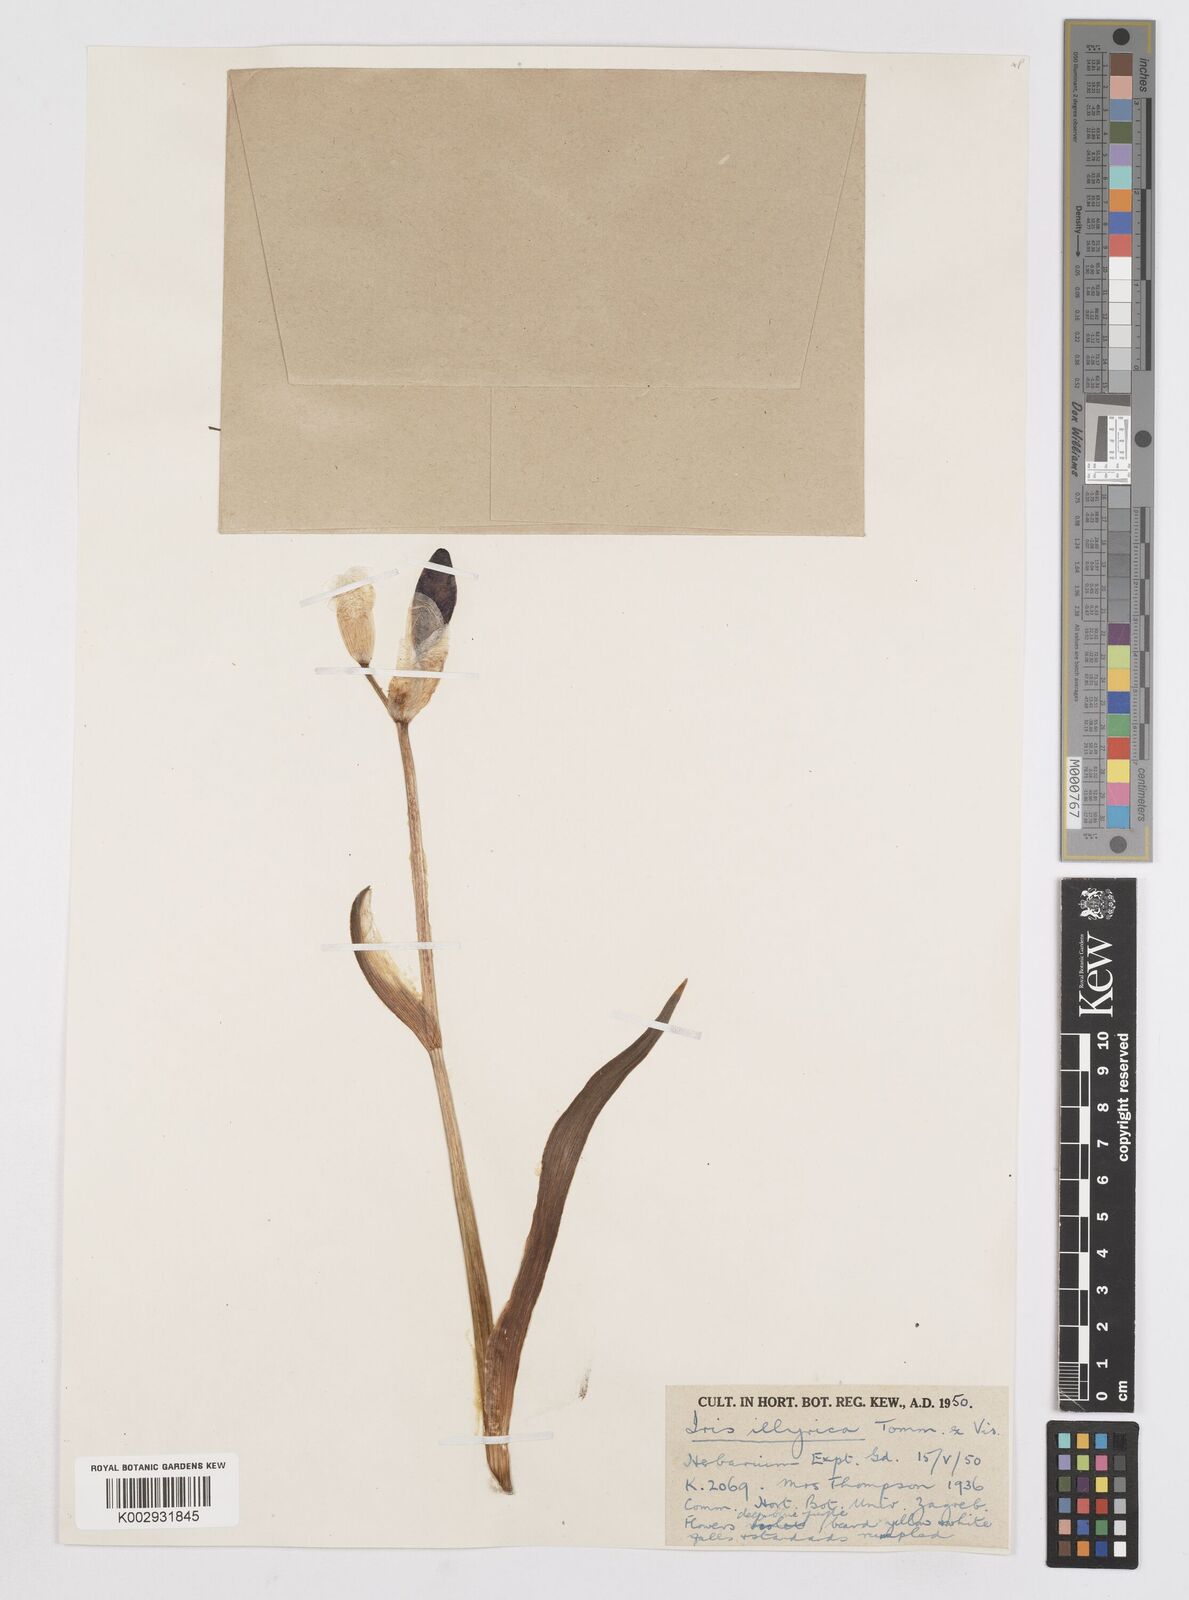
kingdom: Plantae
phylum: Tracheophyta
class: Liliopsida
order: Asparagales
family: Iridaceae
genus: Iris
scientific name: Iris pallida
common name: Sweet iris
